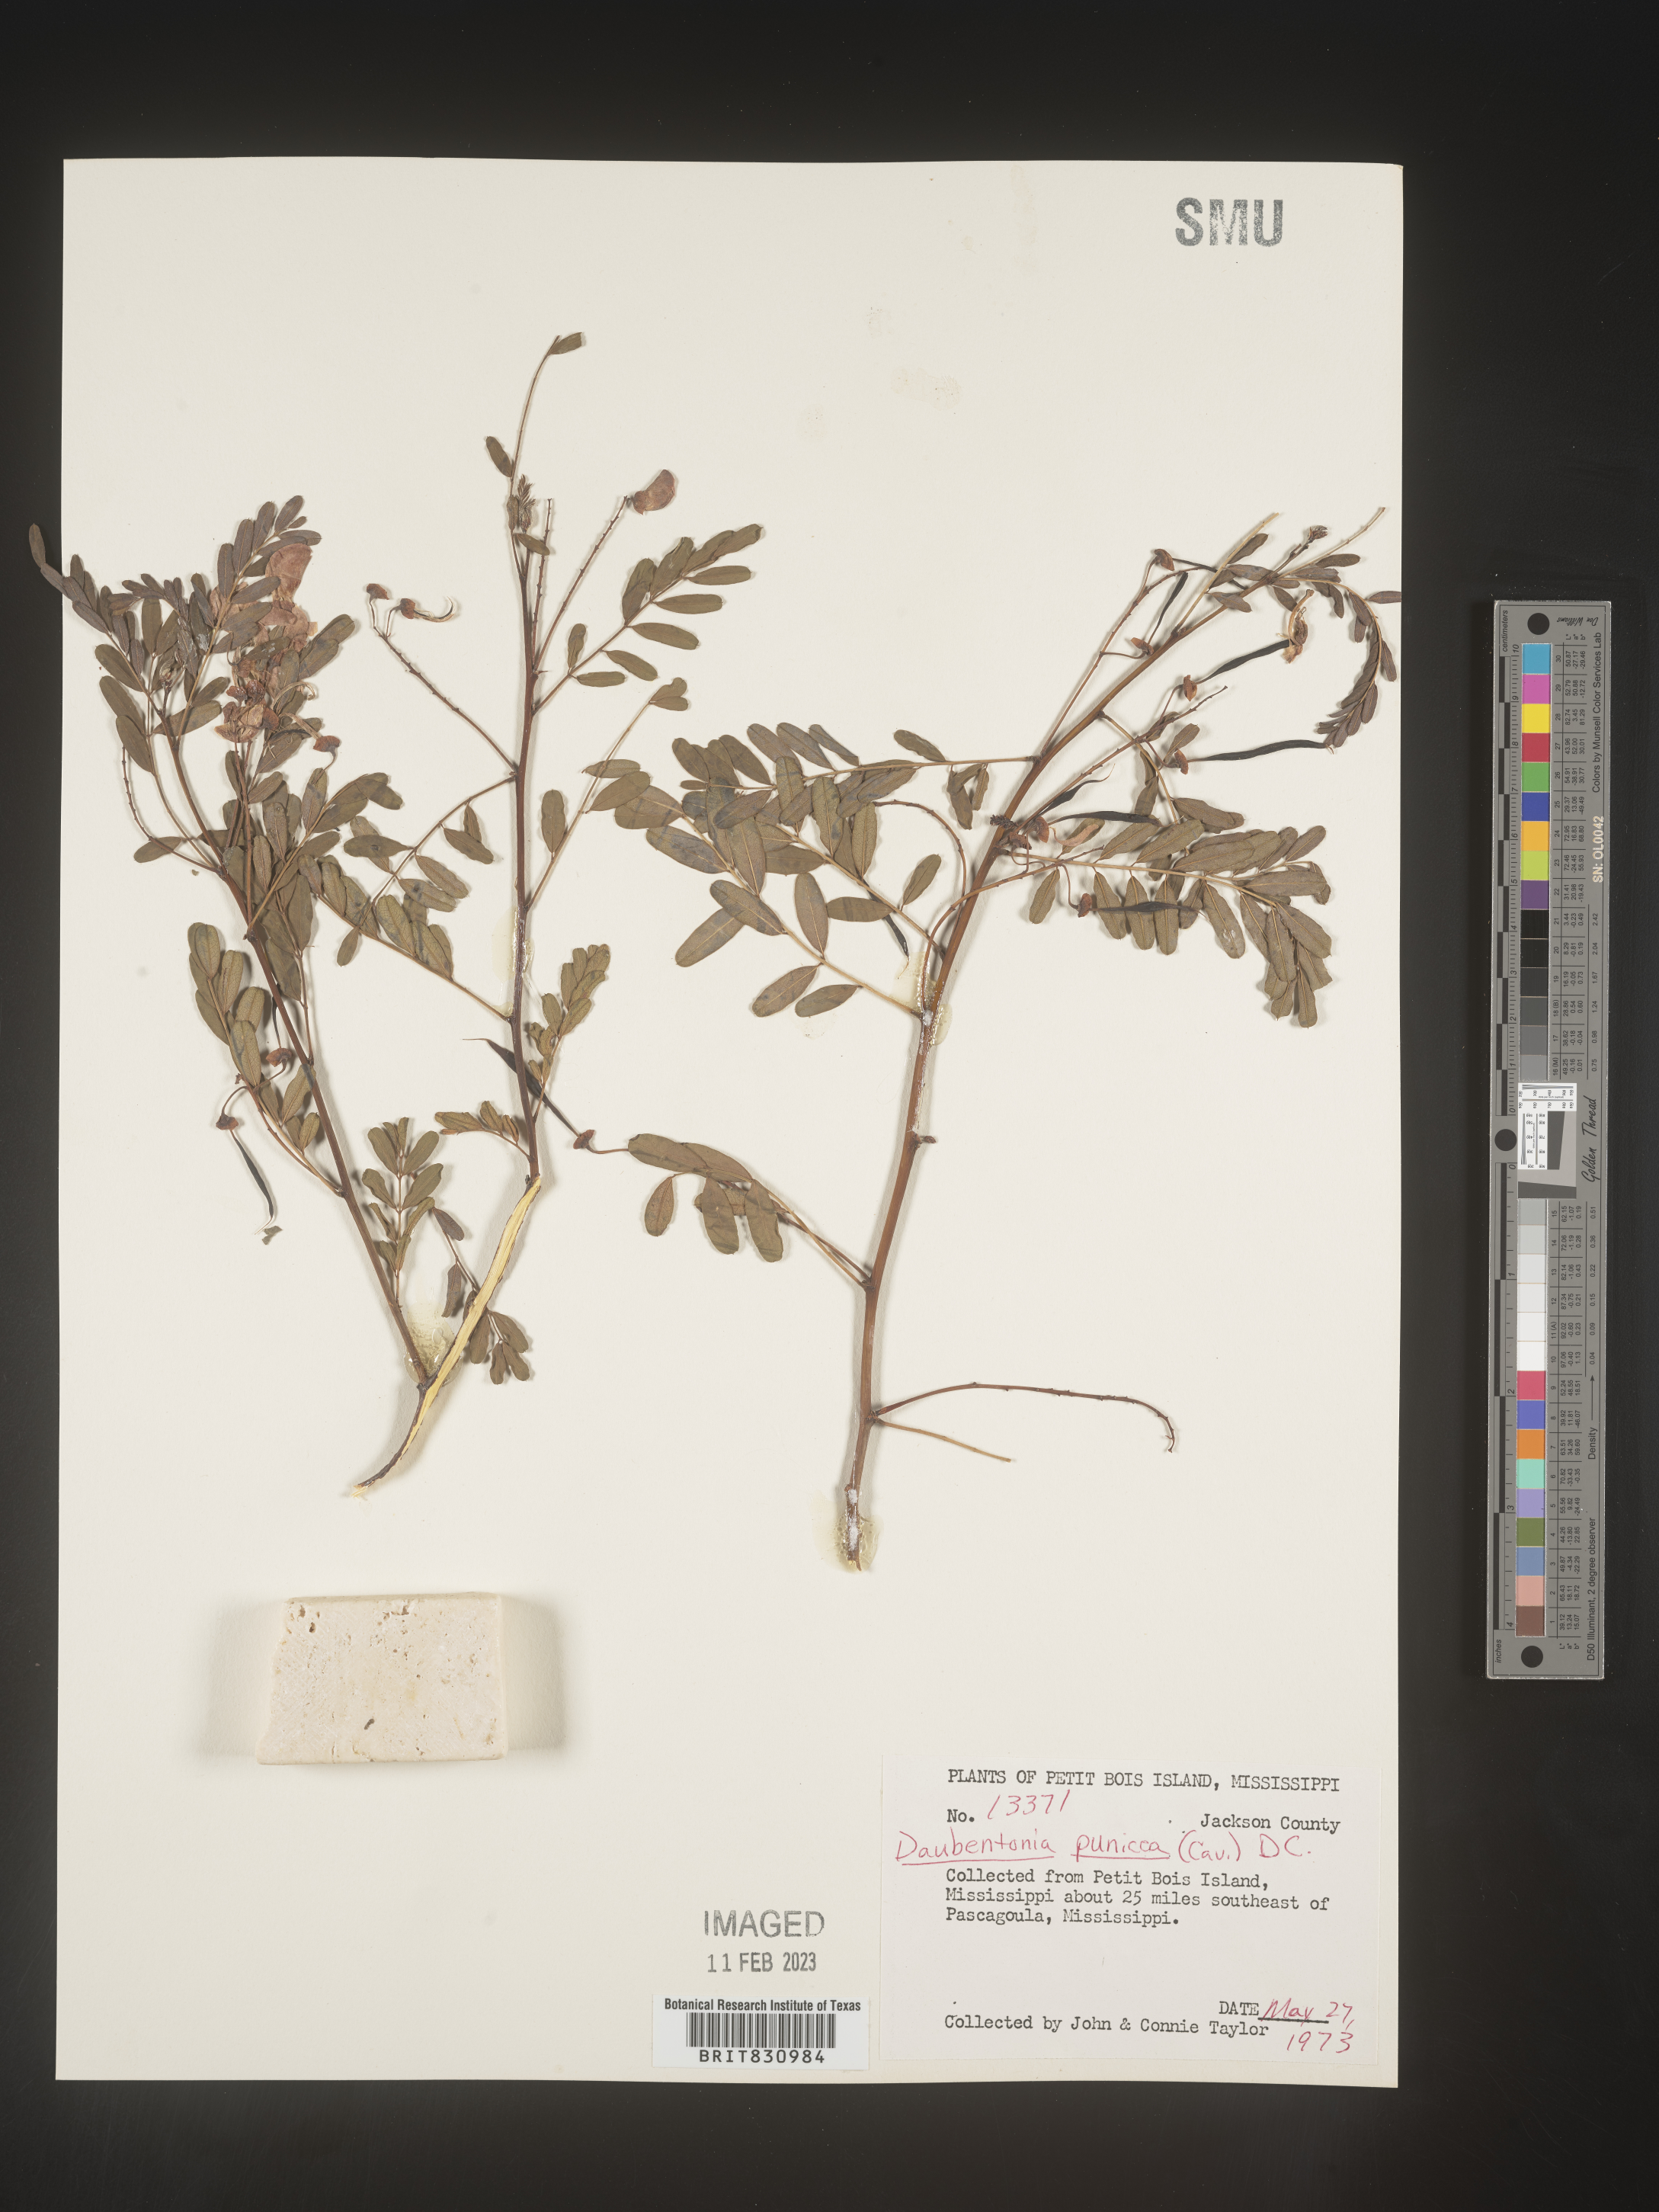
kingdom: Plantae
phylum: Tracheophyta
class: Magnoliopsida
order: Fabales
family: Fabaceae
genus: Sesbania
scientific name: Sesbania punicea
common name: Rattlebox
